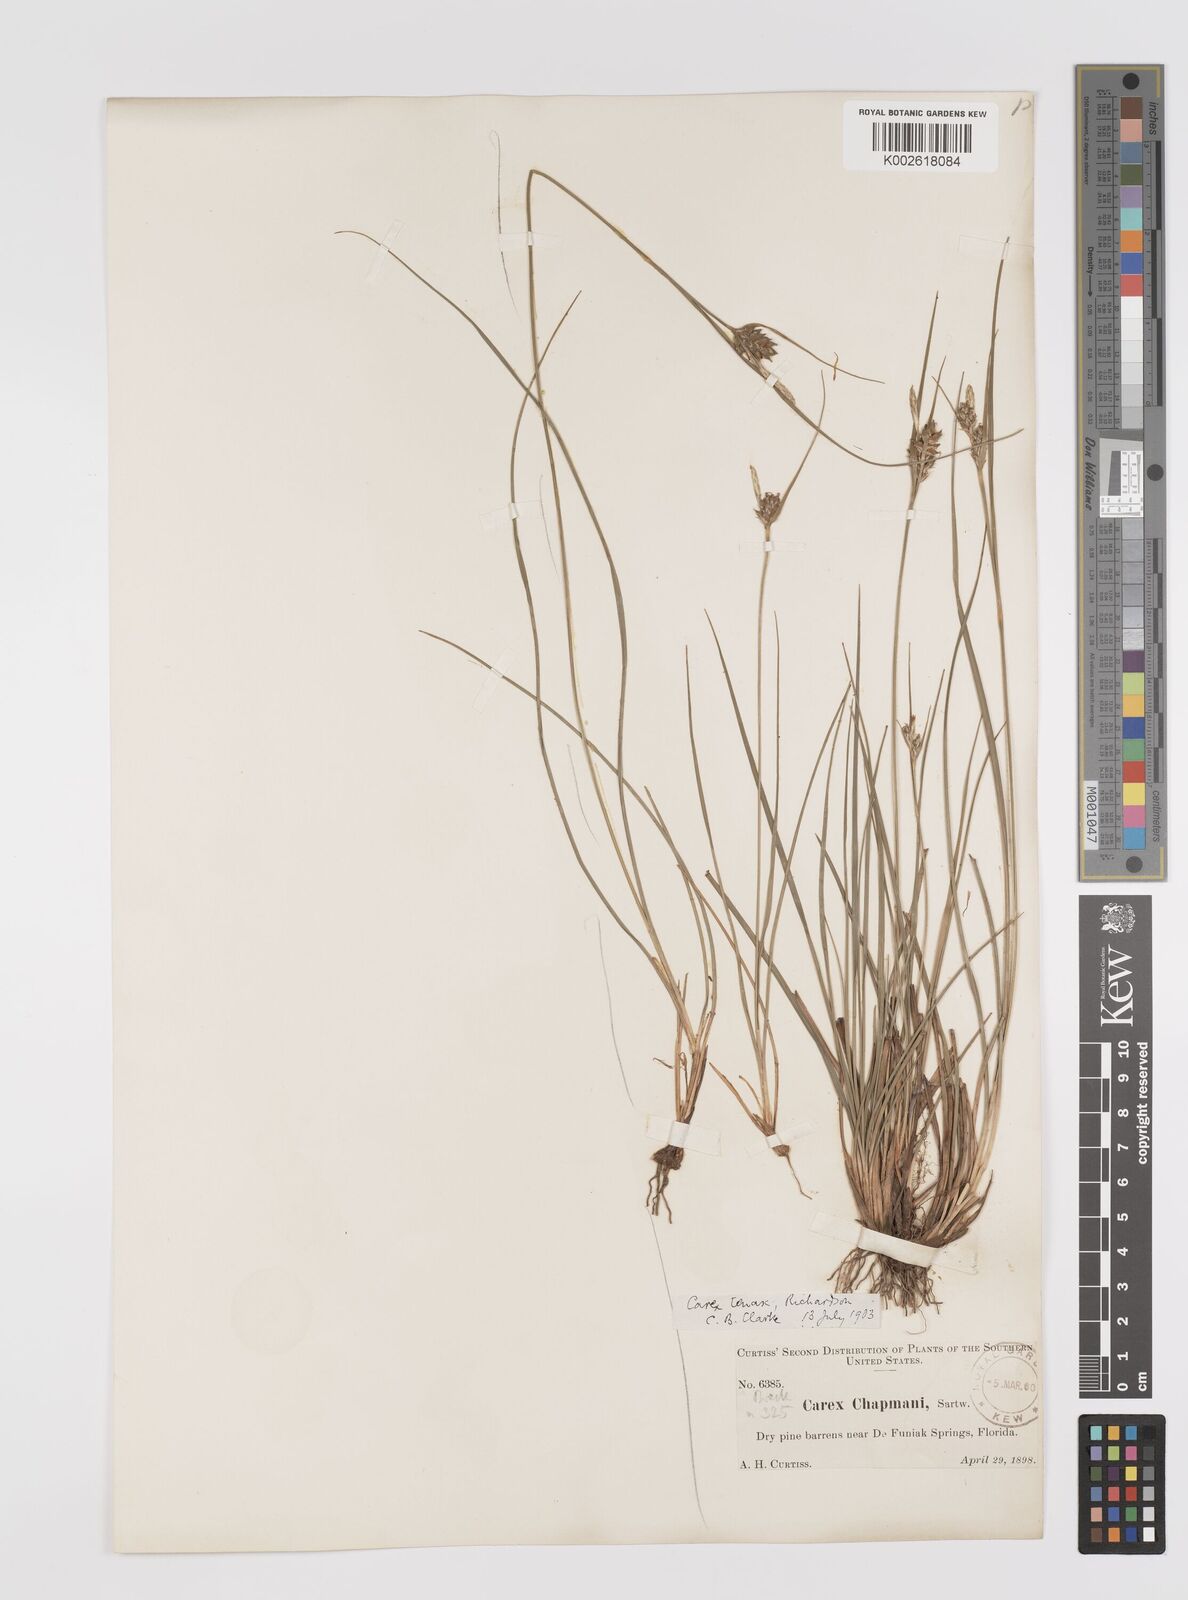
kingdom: Plantae
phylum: Tracheophyta
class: Liliopsida
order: Poales
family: Cyperaceae
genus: Carex
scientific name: Carex tenax
